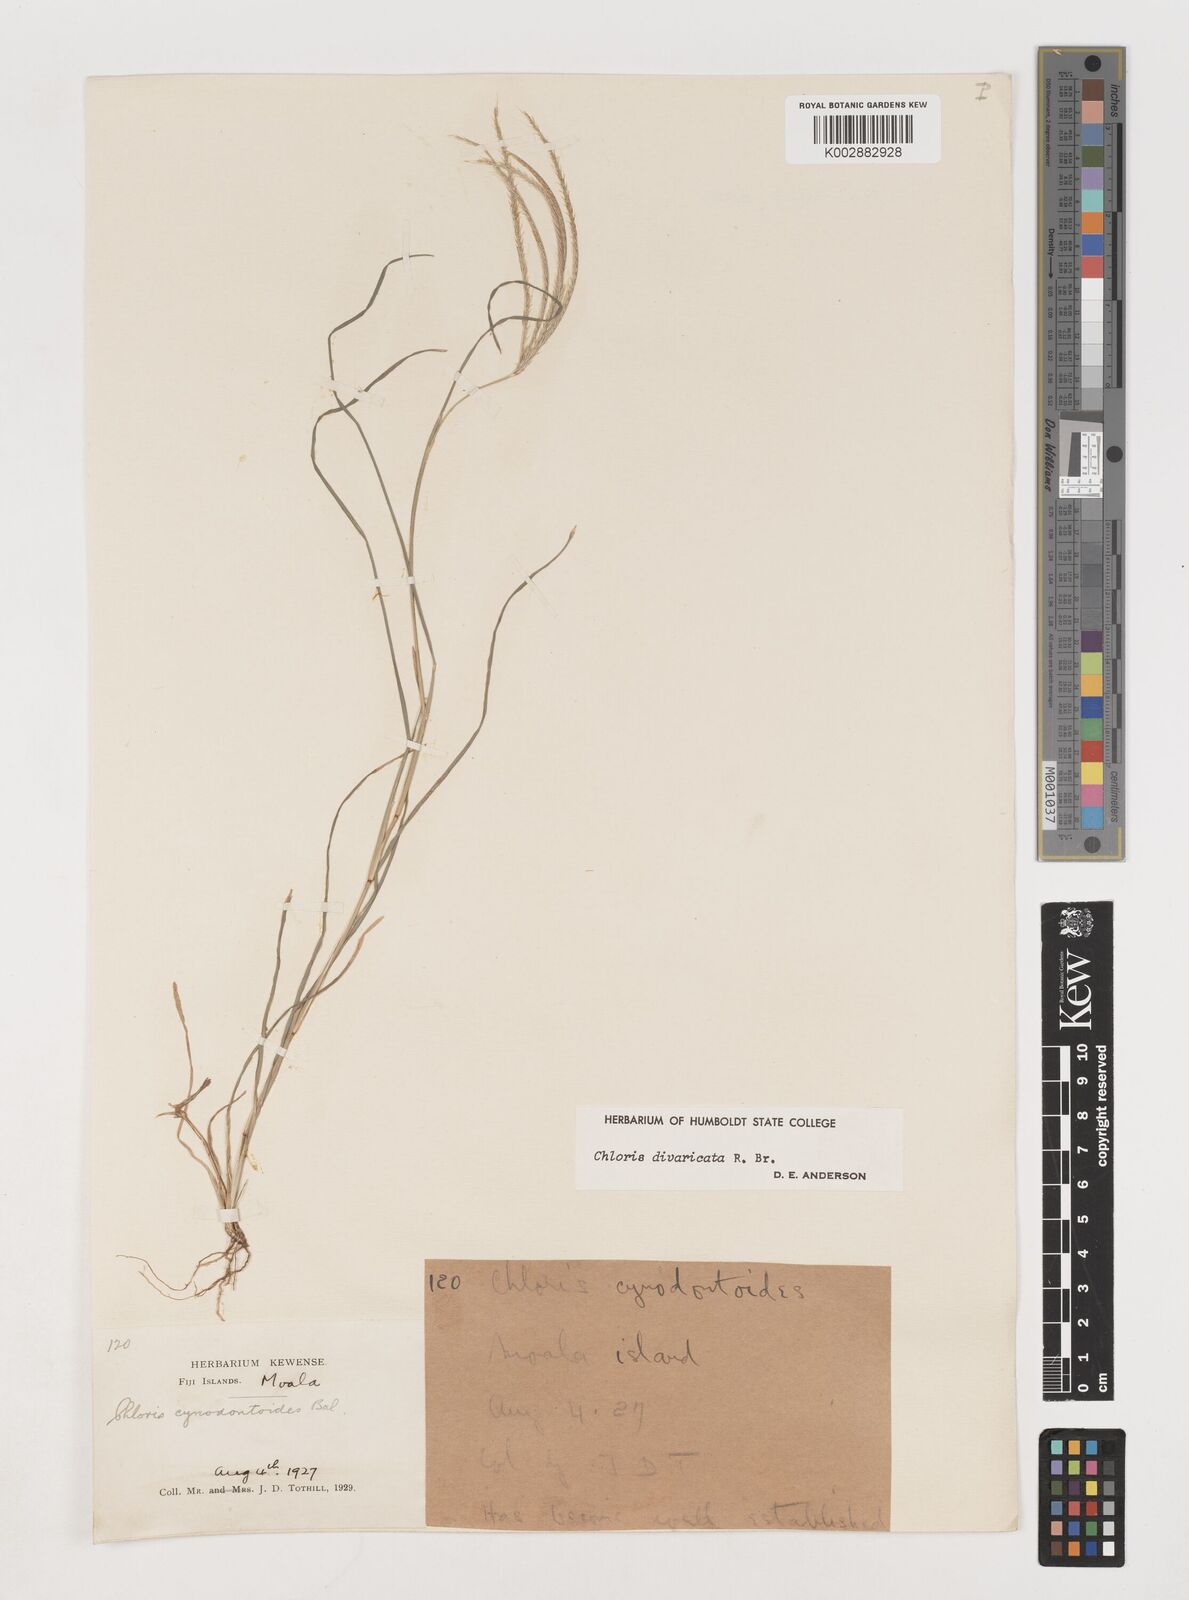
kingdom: Plantae
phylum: Tracheophyta
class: Liliopsida
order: Poales
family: Poaceae
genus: Chloris
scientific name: Chloris divaricata
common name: Spreading windmill grass
